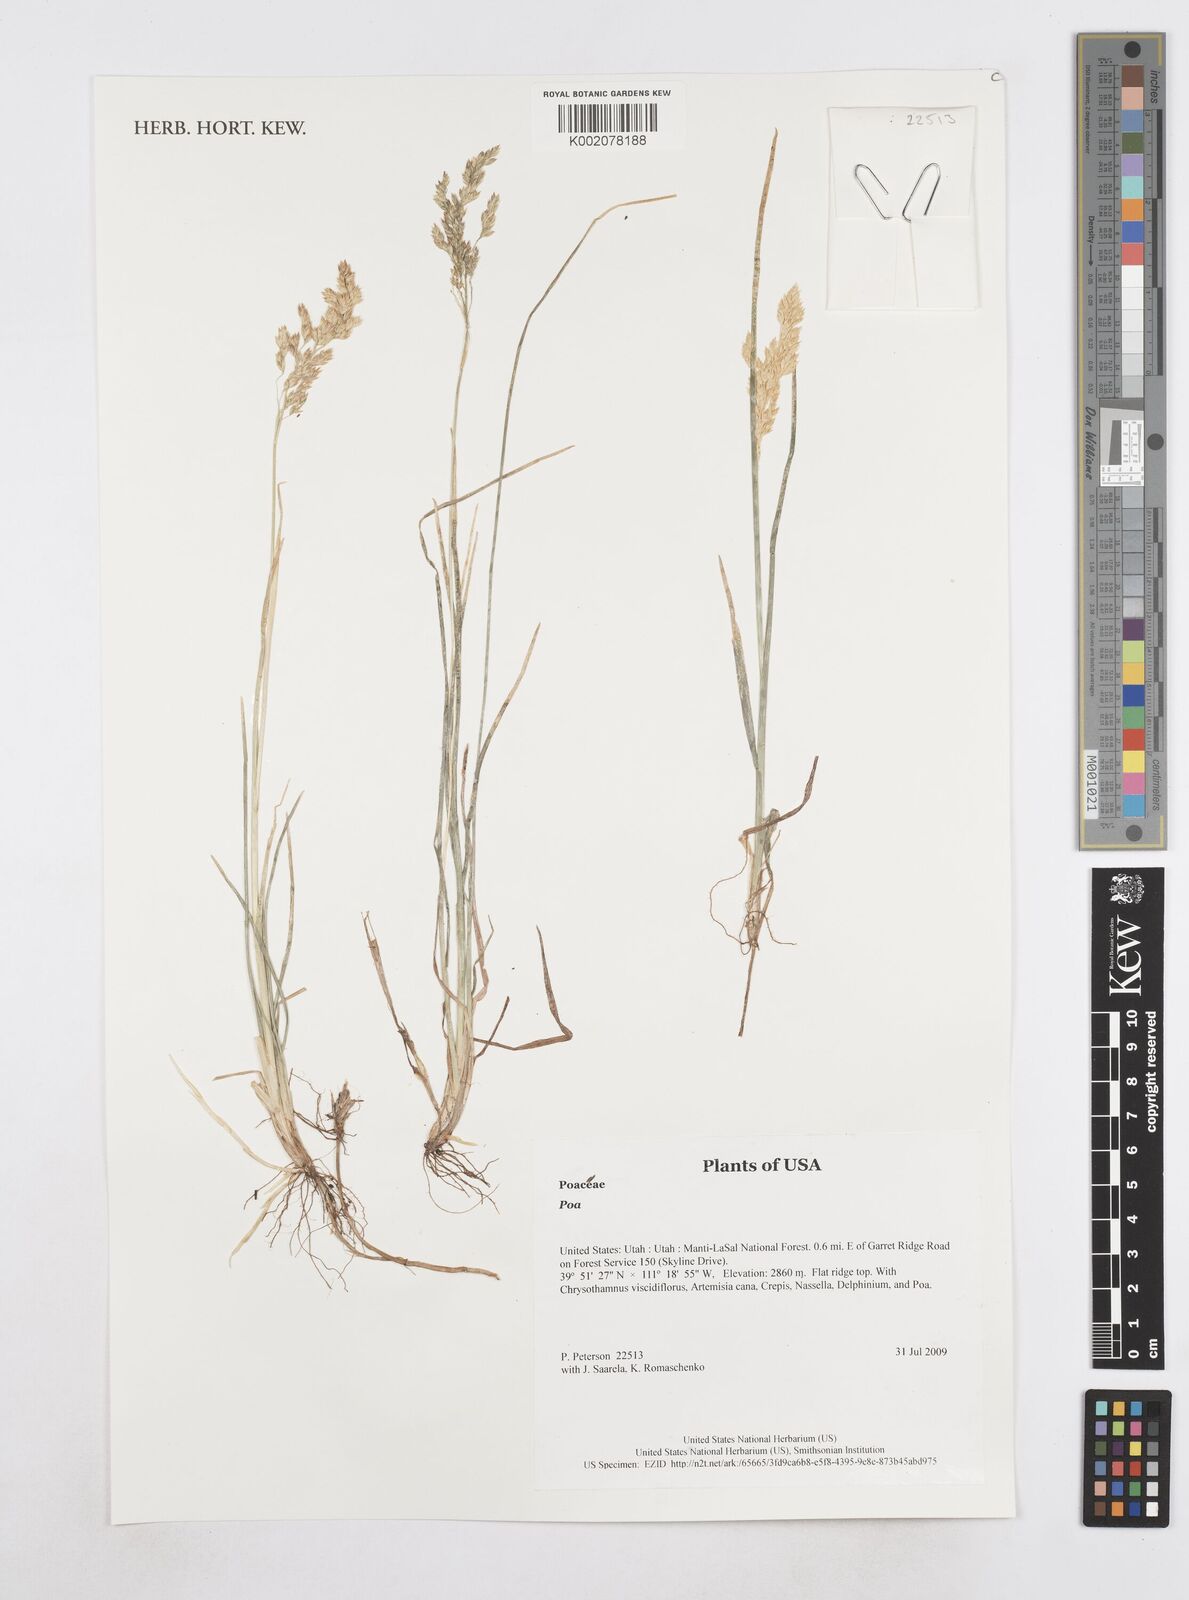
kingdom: Plantae
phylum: Tracheophyta
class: Liliopsida
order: Poales
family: Poaceae
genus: Poa
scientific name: Poa
